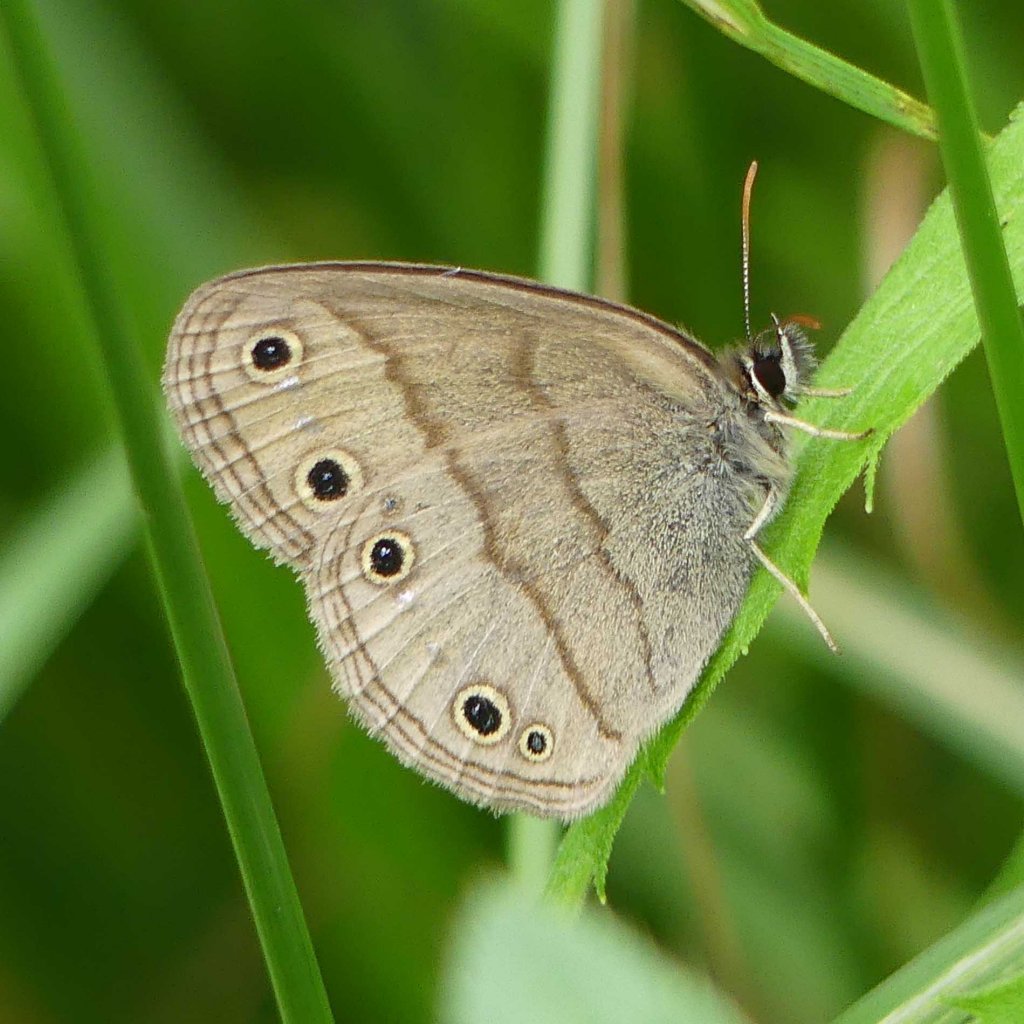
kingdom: Animalia
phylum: Arthropoda
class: Insecta
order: Lepidoptera
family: Nymphalidae
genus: Euptychia
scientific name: Euptychia cymela
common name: Little Wood Satyr
